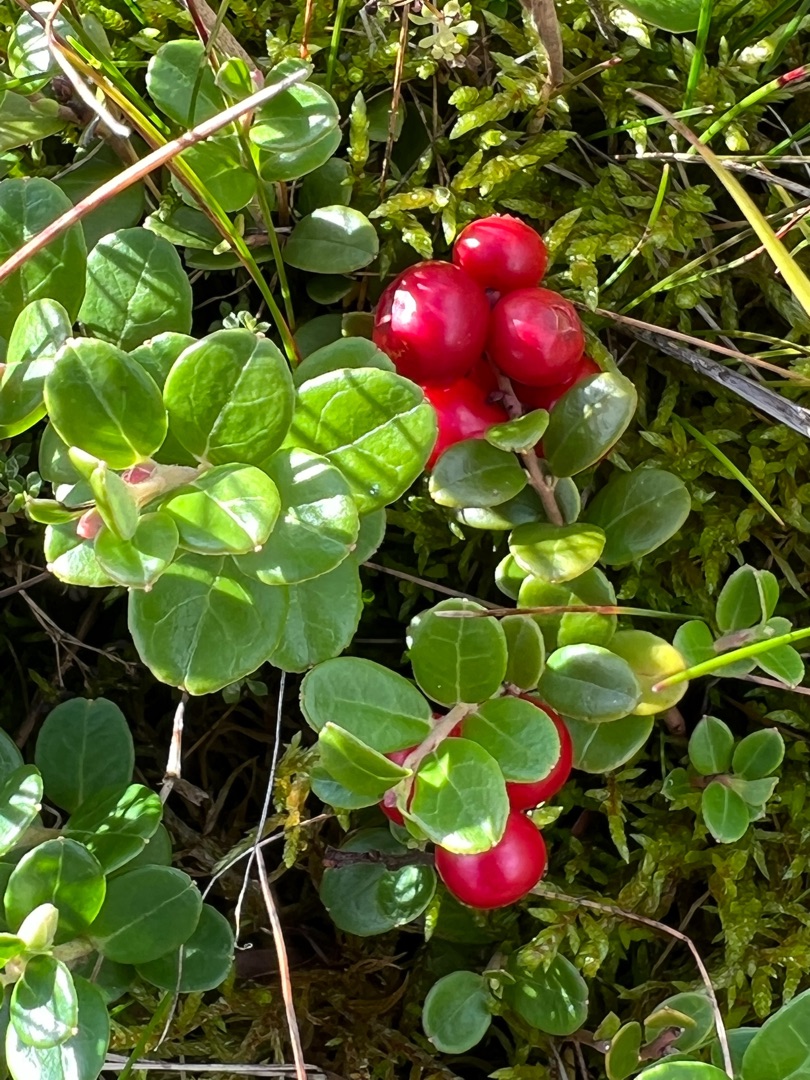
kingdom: Plantae
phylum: Tracheophyta
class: Magnoliopsida
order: Ericales
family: Ericaceae
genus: Vaccinium
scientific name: Vaccinium vitis-idaea
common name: Tyttebær
